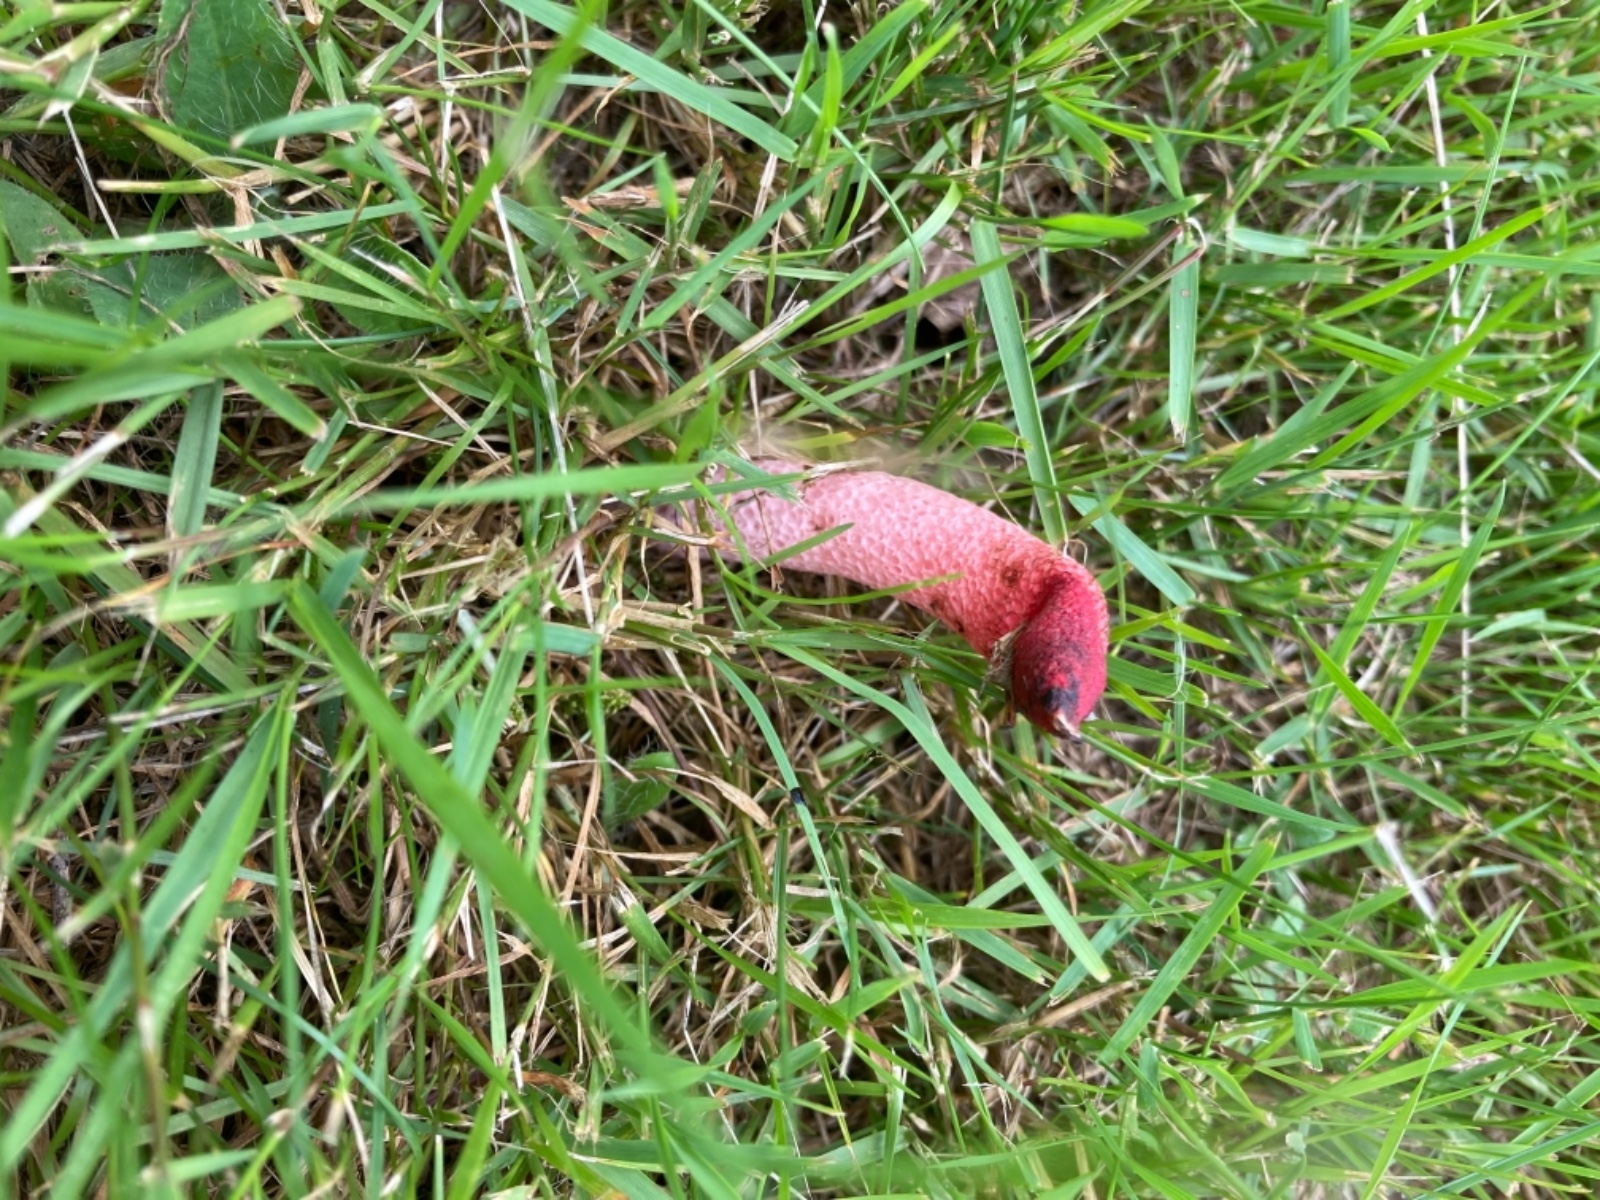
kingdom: Fungi
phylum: Basidiomycota
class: Agaricomycetes
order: Phallales
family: Phallaceae
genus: Mutinus
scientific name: Mutinus ravenelii
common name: rød stinksvamp
